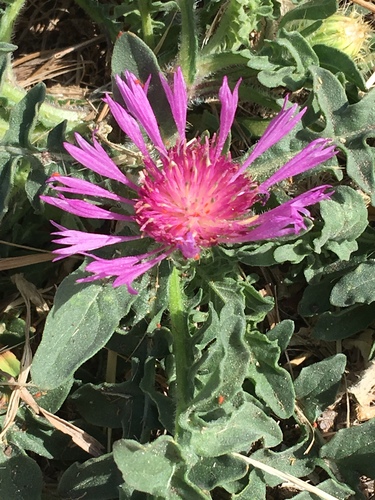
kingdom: Plantae
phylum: Tracheophyta
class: Magnoliopsida
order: Asterales
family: Asteraceae
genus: Centaurea
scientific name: Centaurea pullata
